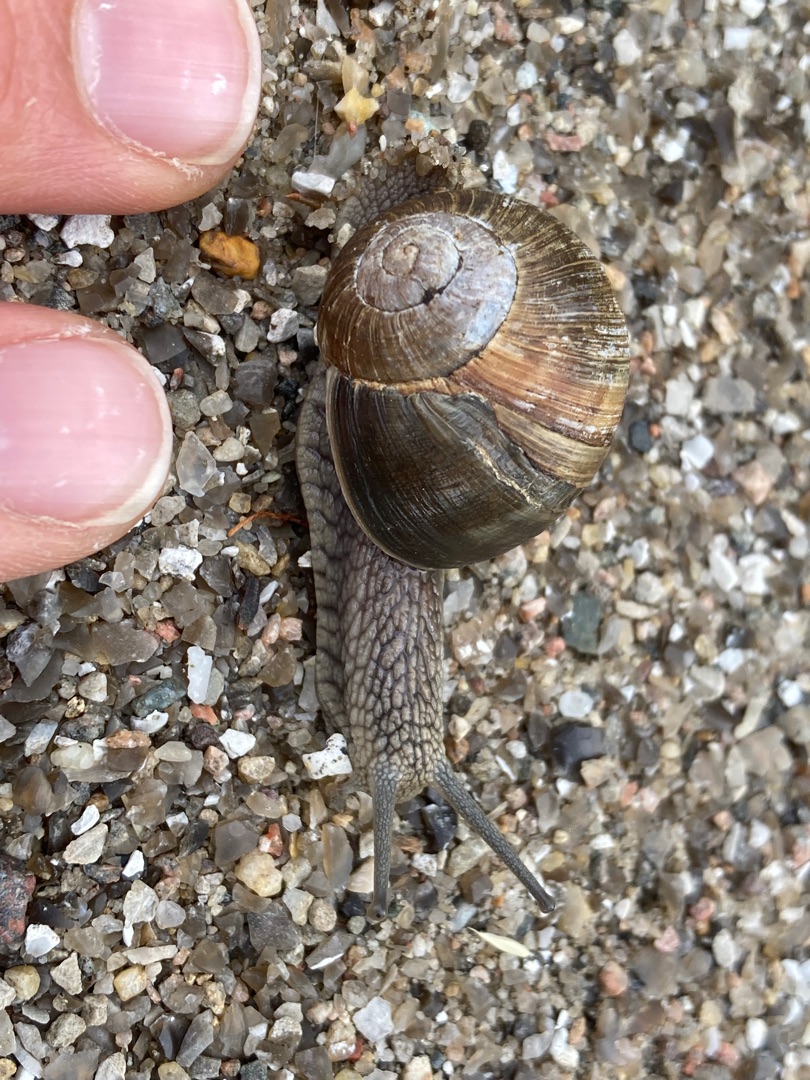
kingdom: Animalia
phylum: Mollusca
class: Gastropoda
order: Stylommatophora
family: Helicidae
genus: Helix
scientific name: Helix pomatia
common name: Vinbjergsnegl
